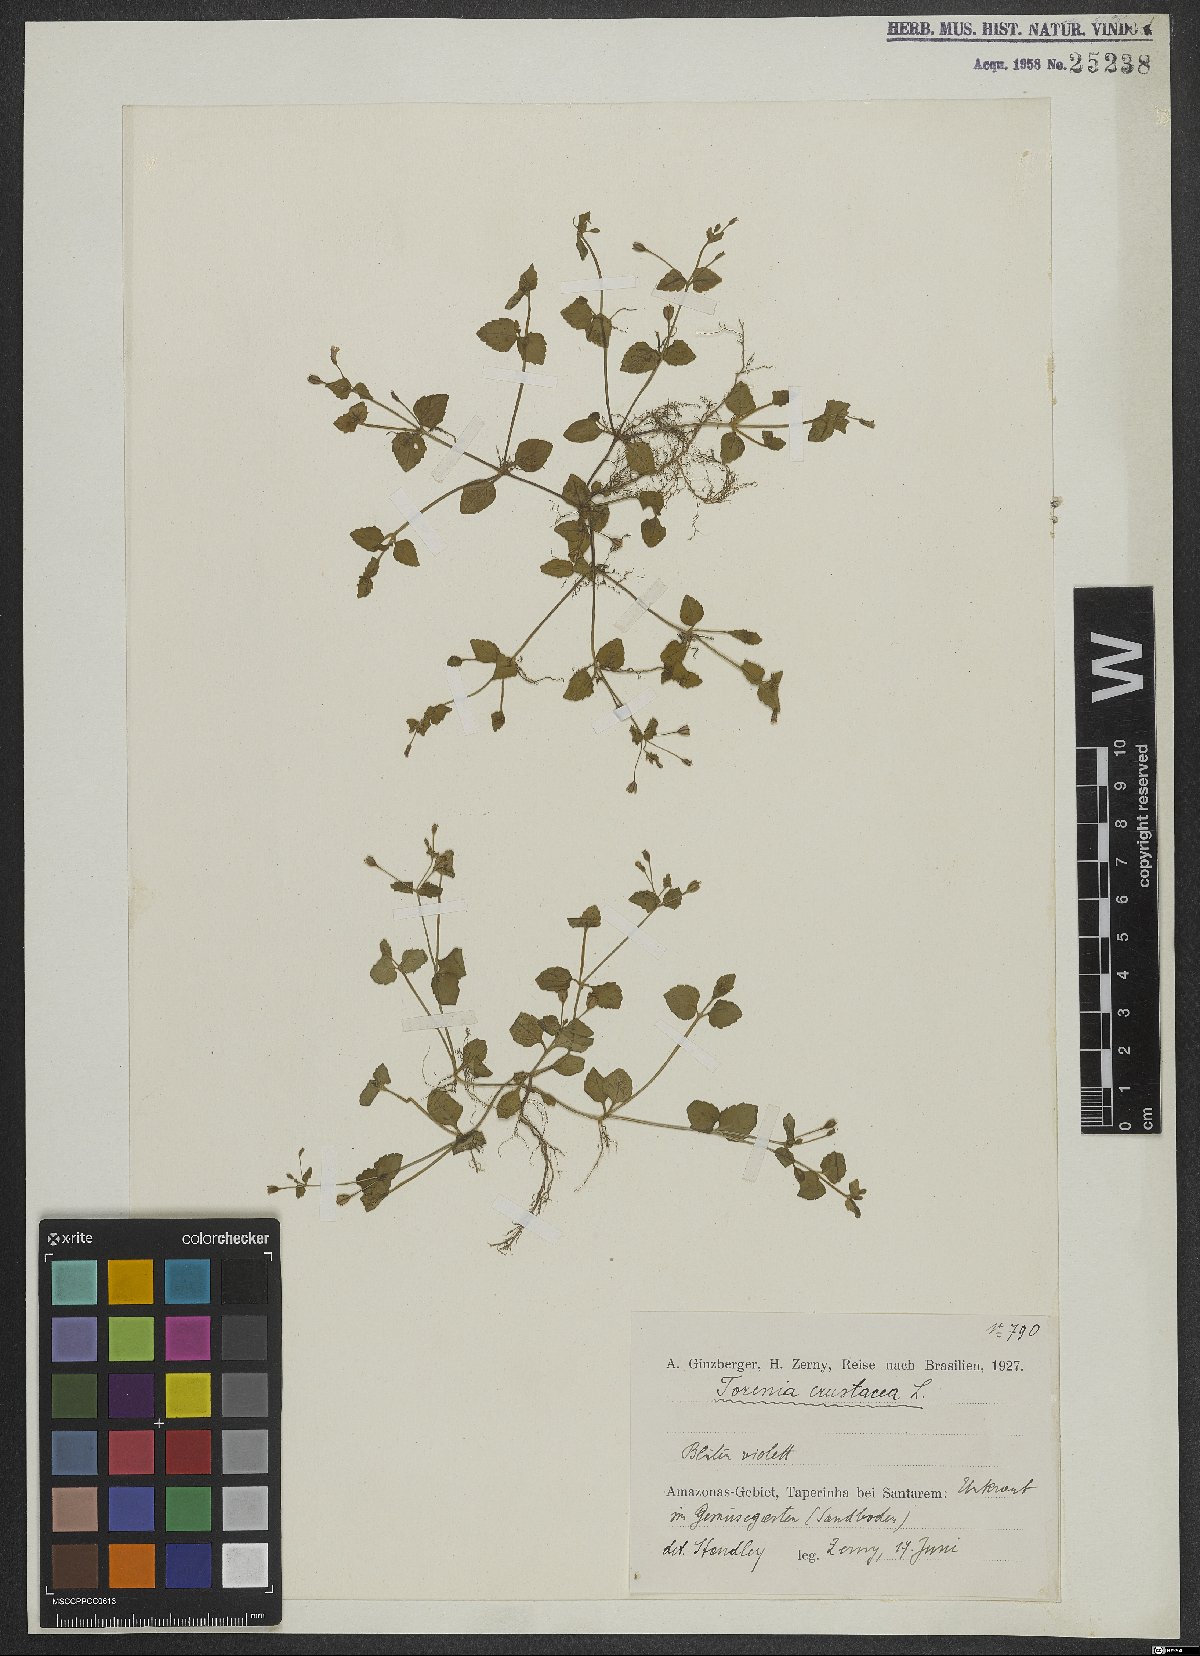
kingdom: Plantae
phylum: Tracheophyta
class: Magnoliopsida
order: Lamiales
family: Linderniaceae
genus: Torenia
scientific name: Torenia crustacea
